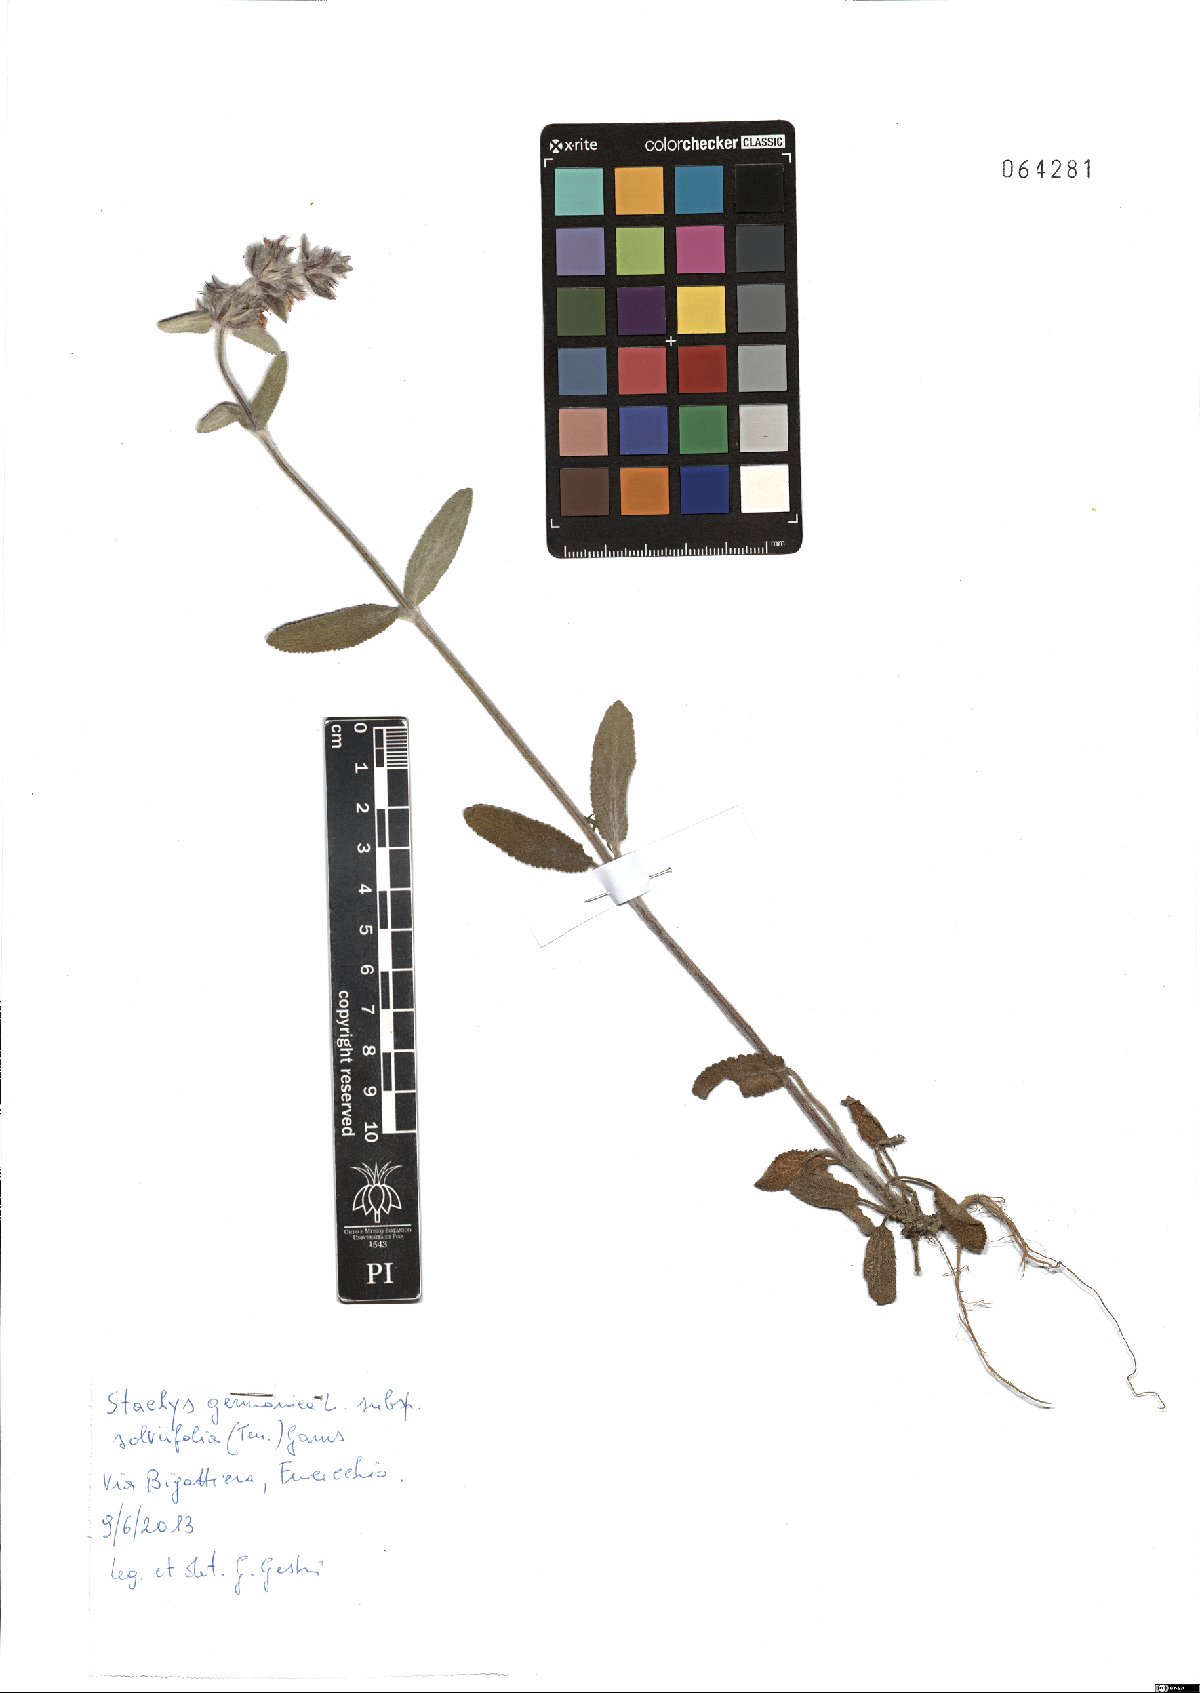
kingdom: Plantae
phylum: Tracheophyta
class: Magnoliopsida
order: Lamiales
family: Lamiaceae
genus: Stachys
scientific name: Stachys cretica
